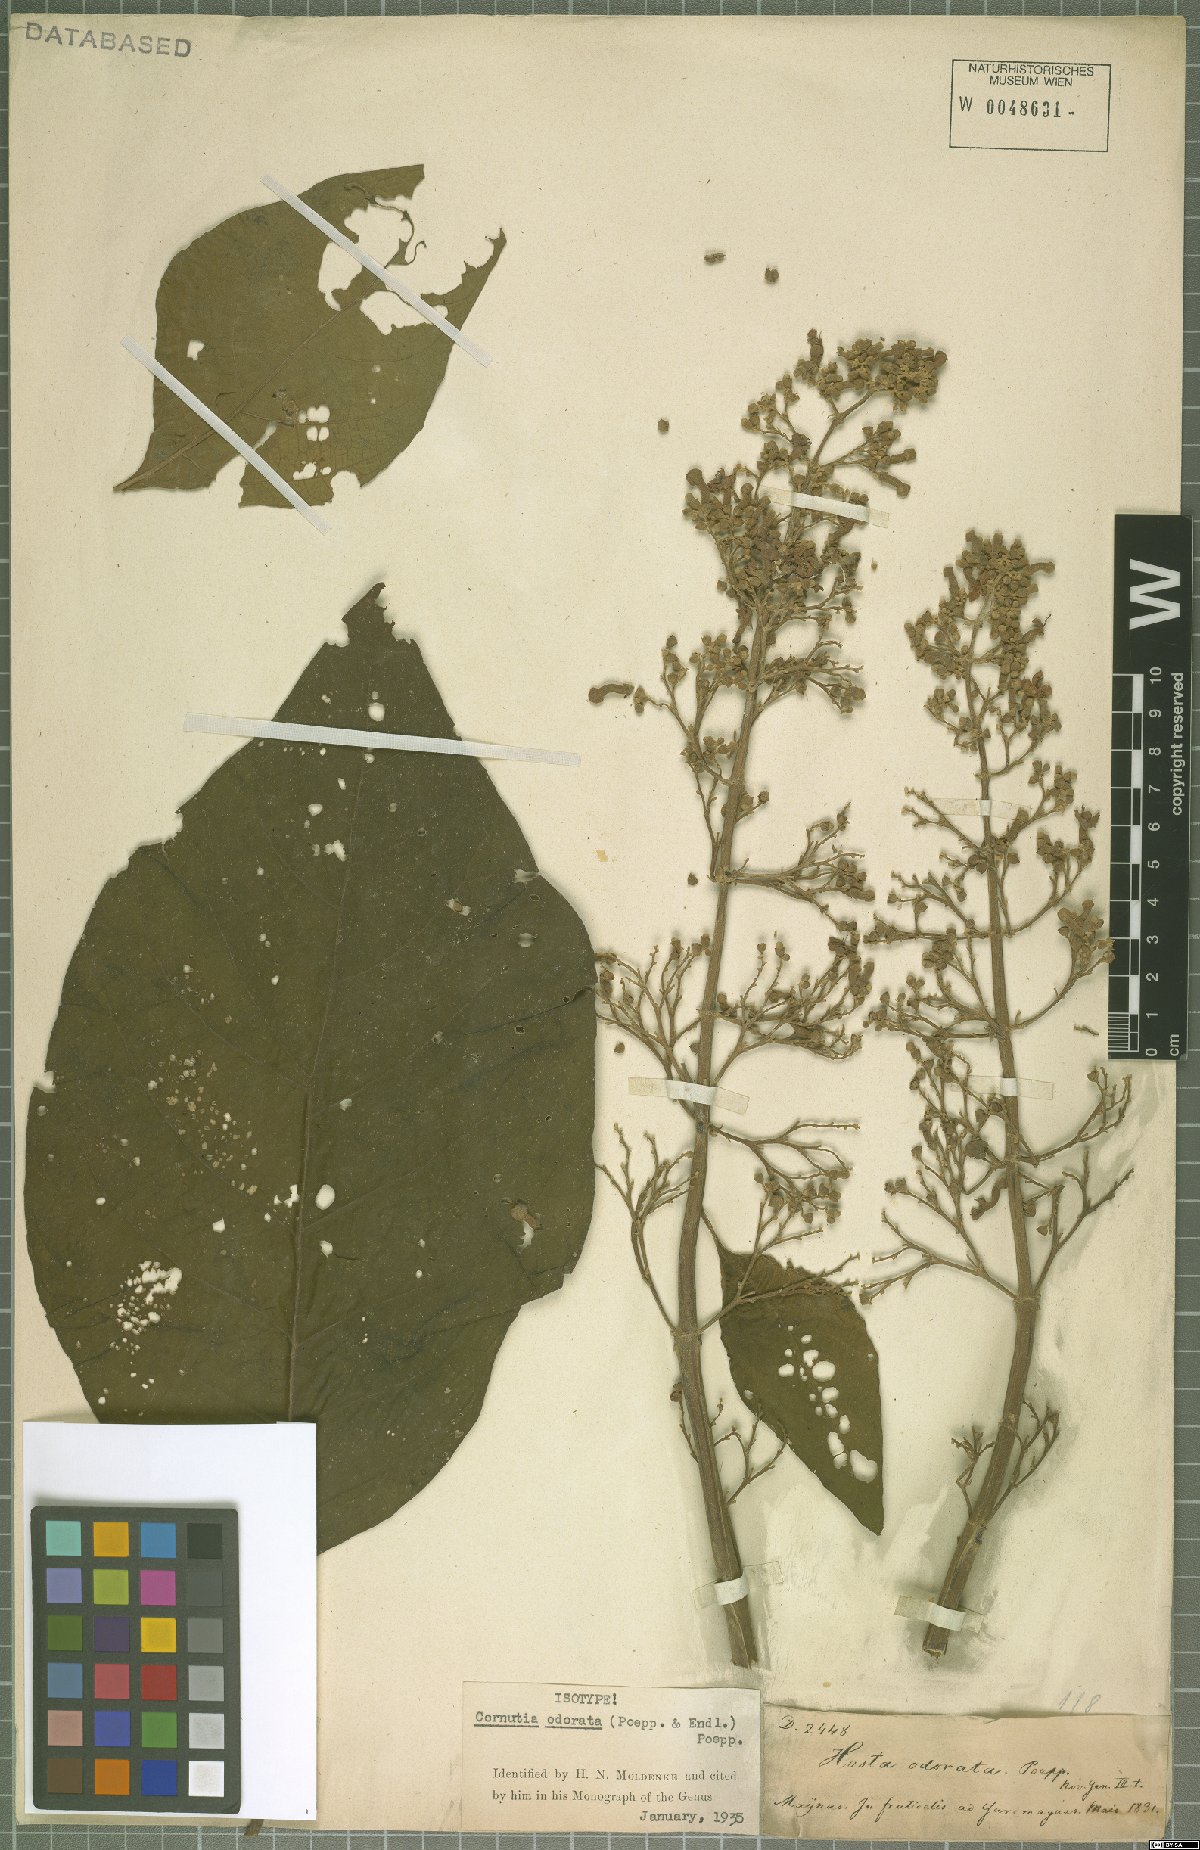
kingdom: Plantae
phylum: Tracheophyta
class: Magnoliopsida
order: Lamiales
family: Lamiaceae
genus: Cornutia
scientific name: Cornutia odorata
